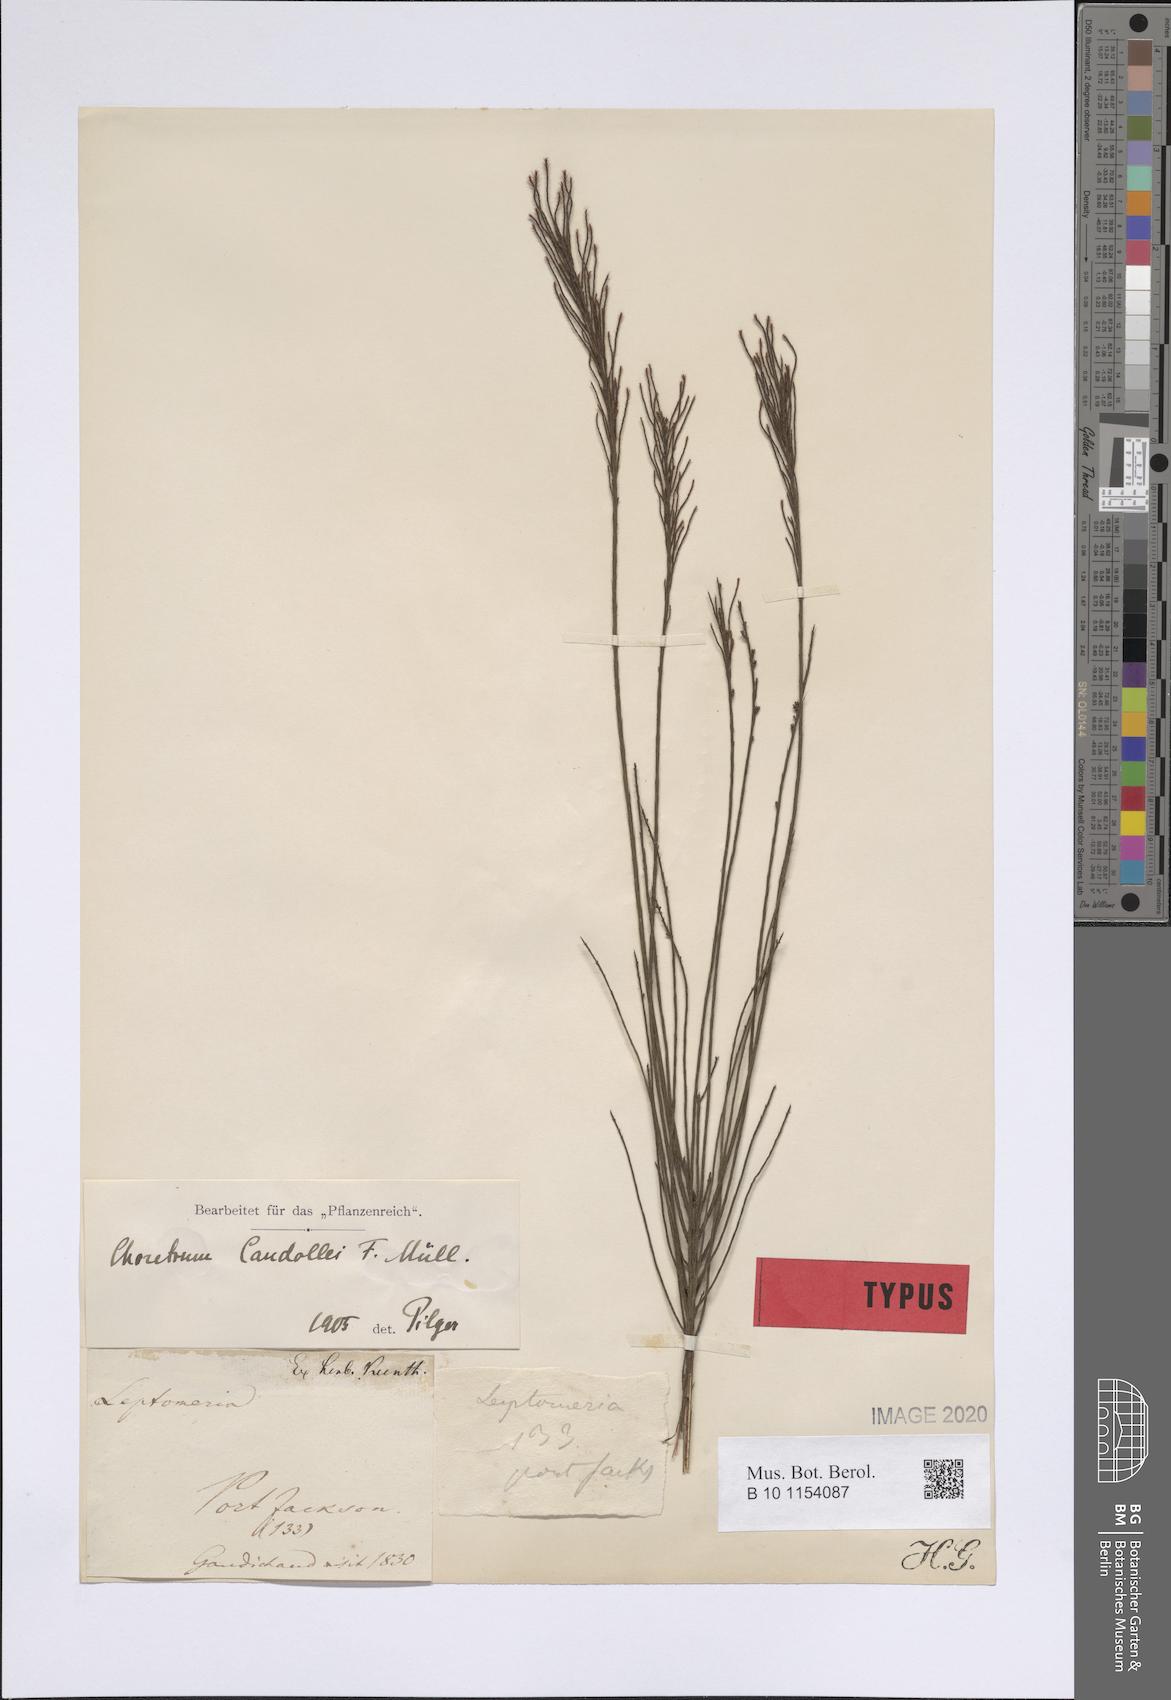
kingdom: Plantae
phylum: Tracheophyta
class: Magnoliopsida
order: Santalales
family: Amphorogynaceae
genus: Choretrum
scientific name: Choretrum candollei
